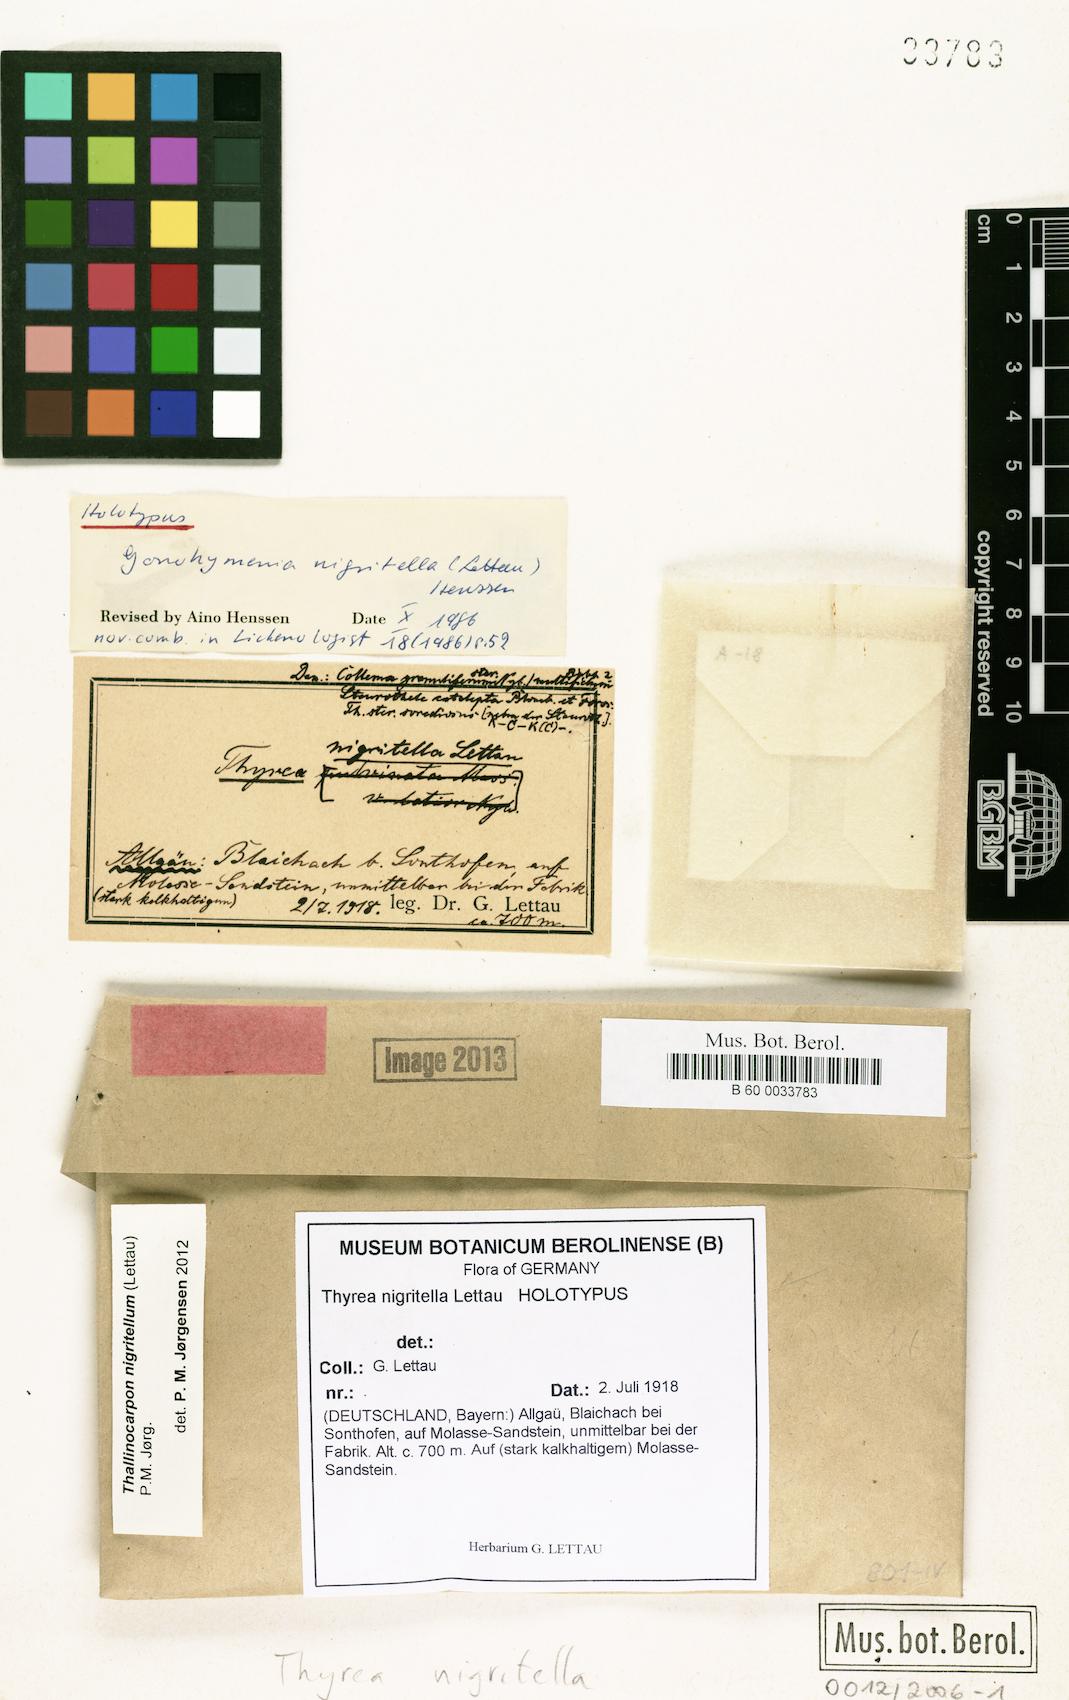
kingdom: Fungi
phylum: Ascomycota
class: Lichinomycetes
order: Lichinales
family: Lichinaceae
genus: Thallinocarpon
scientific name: Thallinocarpon nigritellum
